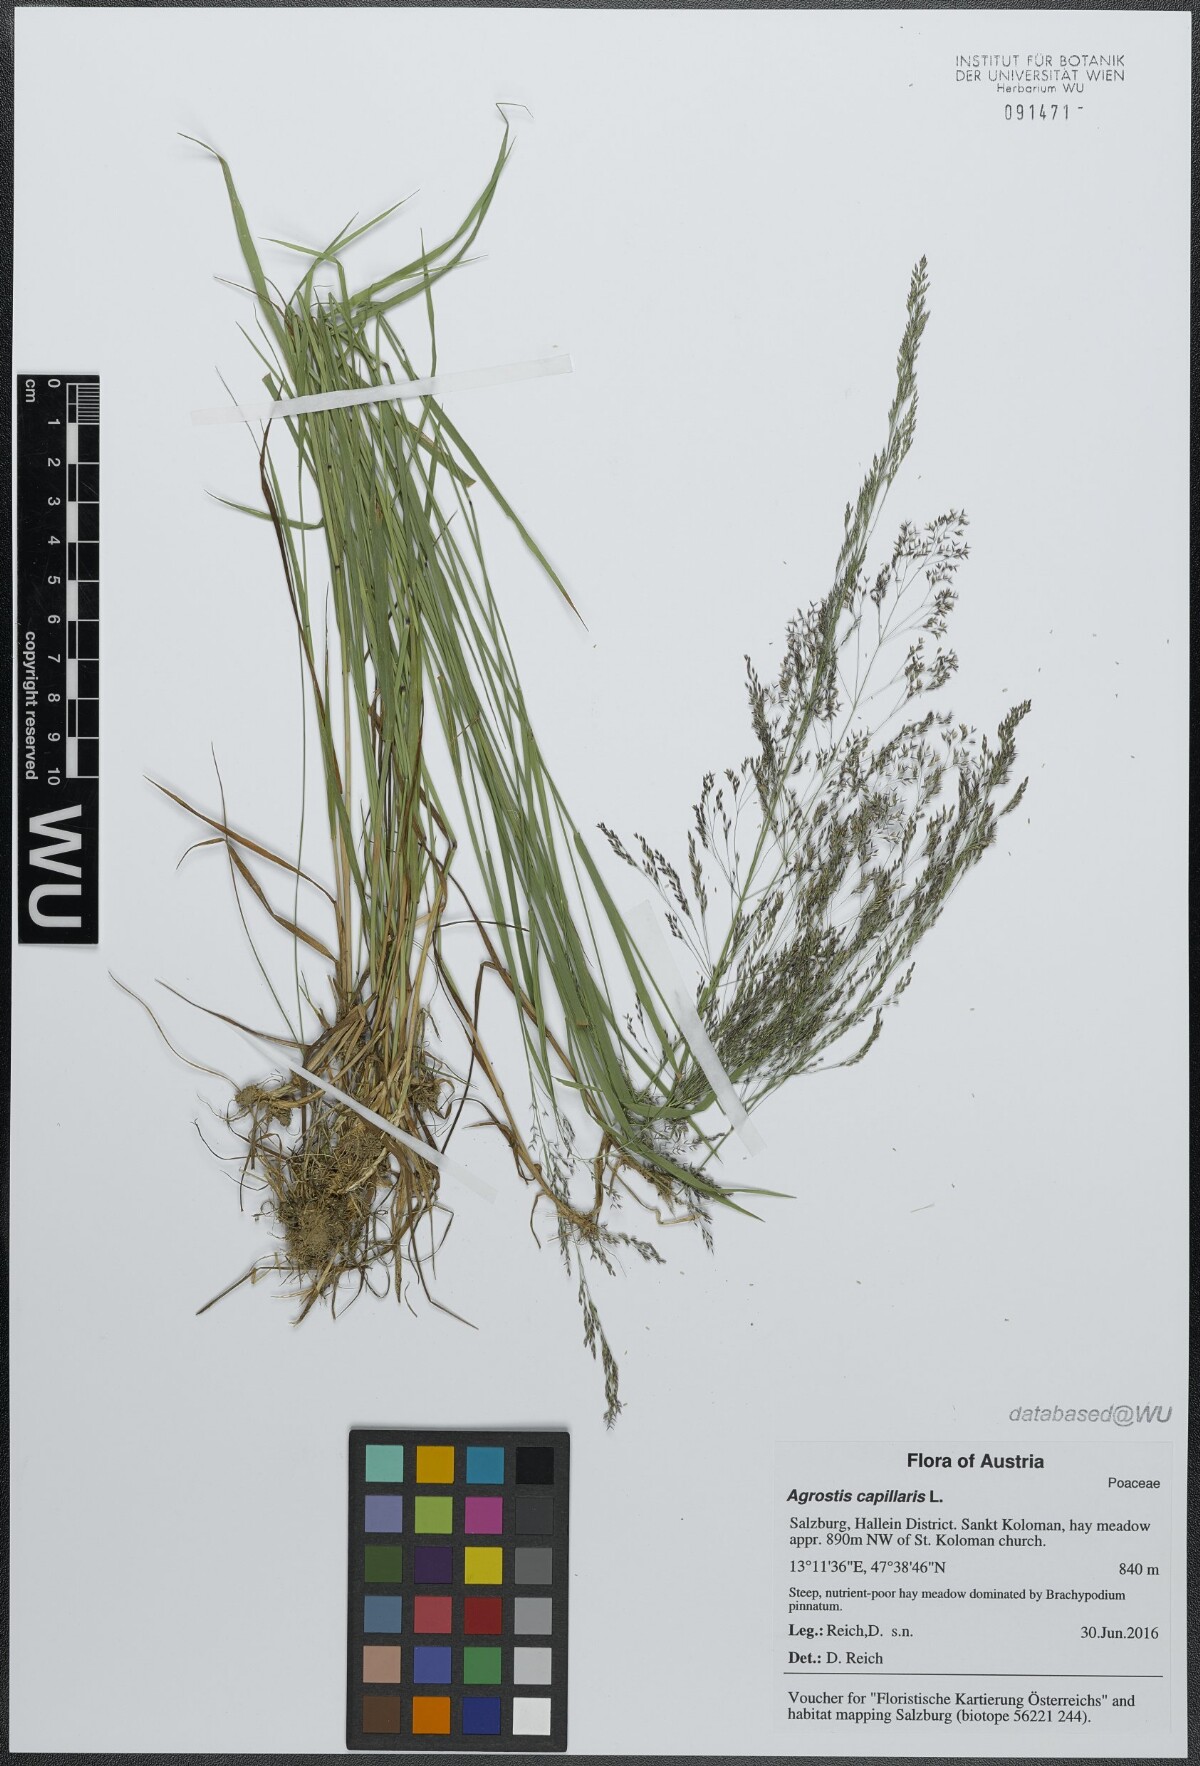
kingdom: Plantae
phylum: Tracheophyta
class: Liliopsida
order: Poales
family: Poaceae
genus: Agrostis
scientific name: Agrostis capillaris
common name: Colonial bentgrass
